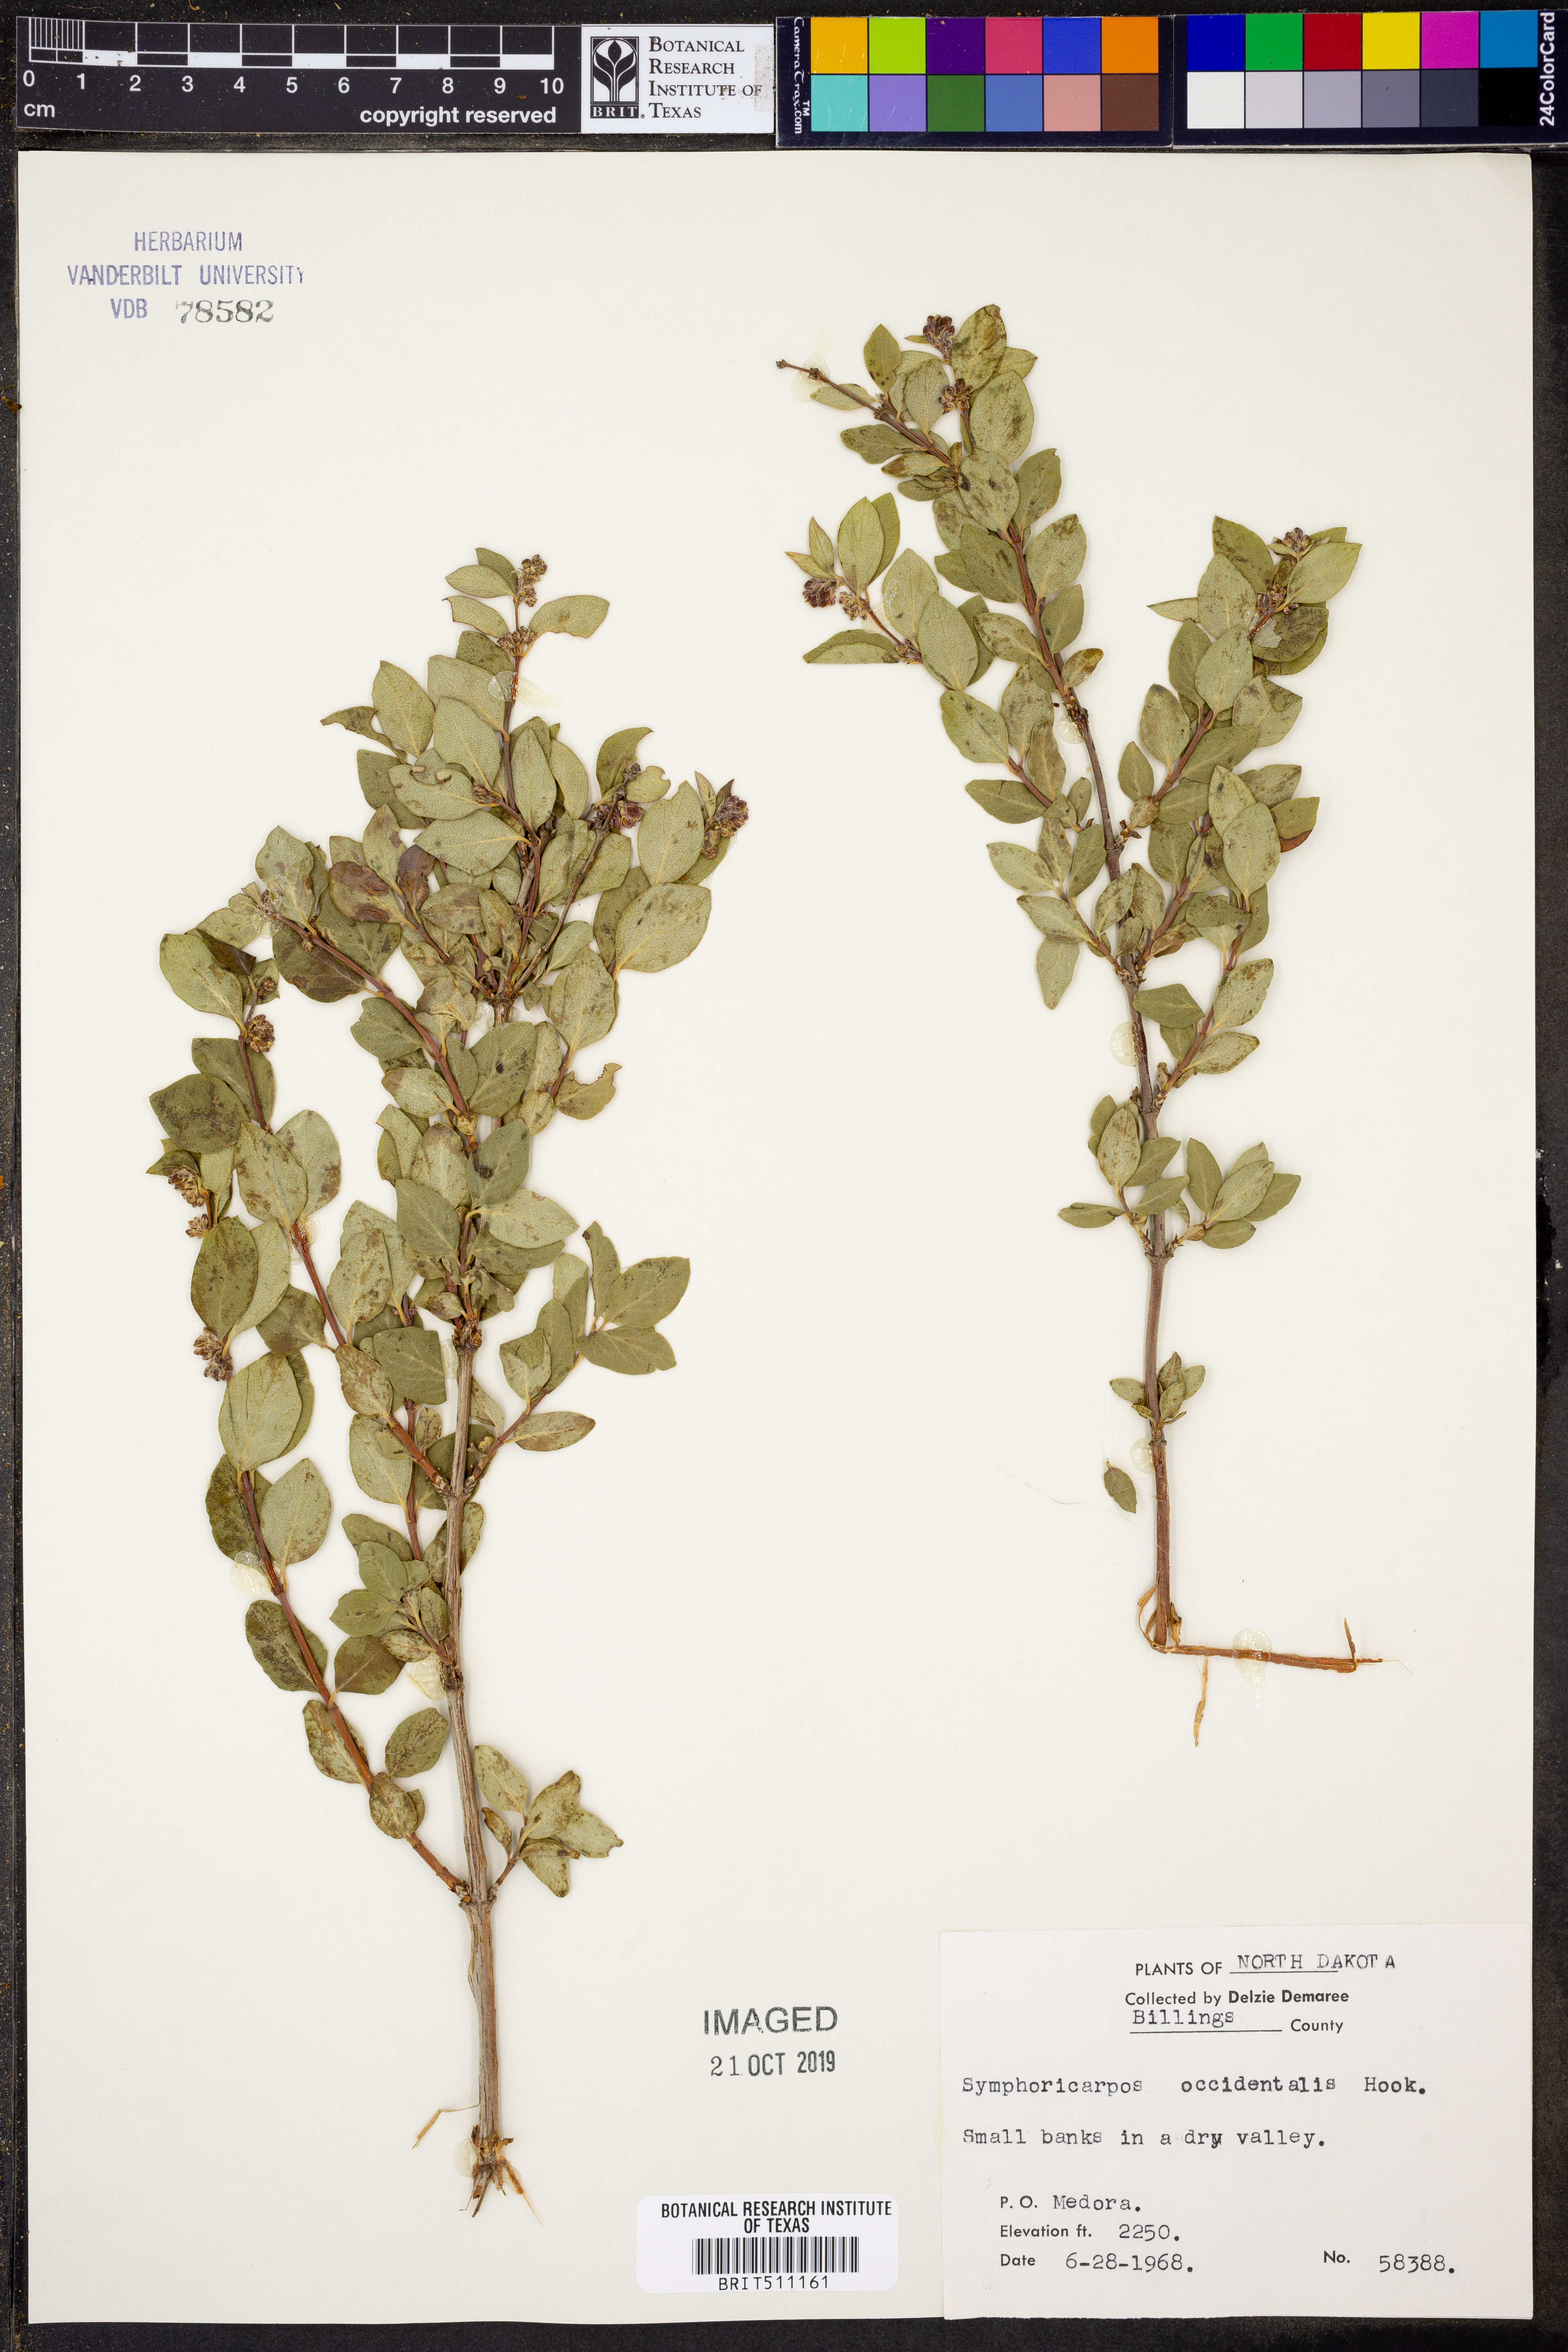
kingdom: Plantae
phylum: Tracheophyta
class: Magnoliopsida
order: Dipsacales
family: Caprifoliaceae
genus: Symphoricarpos
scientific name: Symphoricarpos occidentalis
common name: Wolfberry
